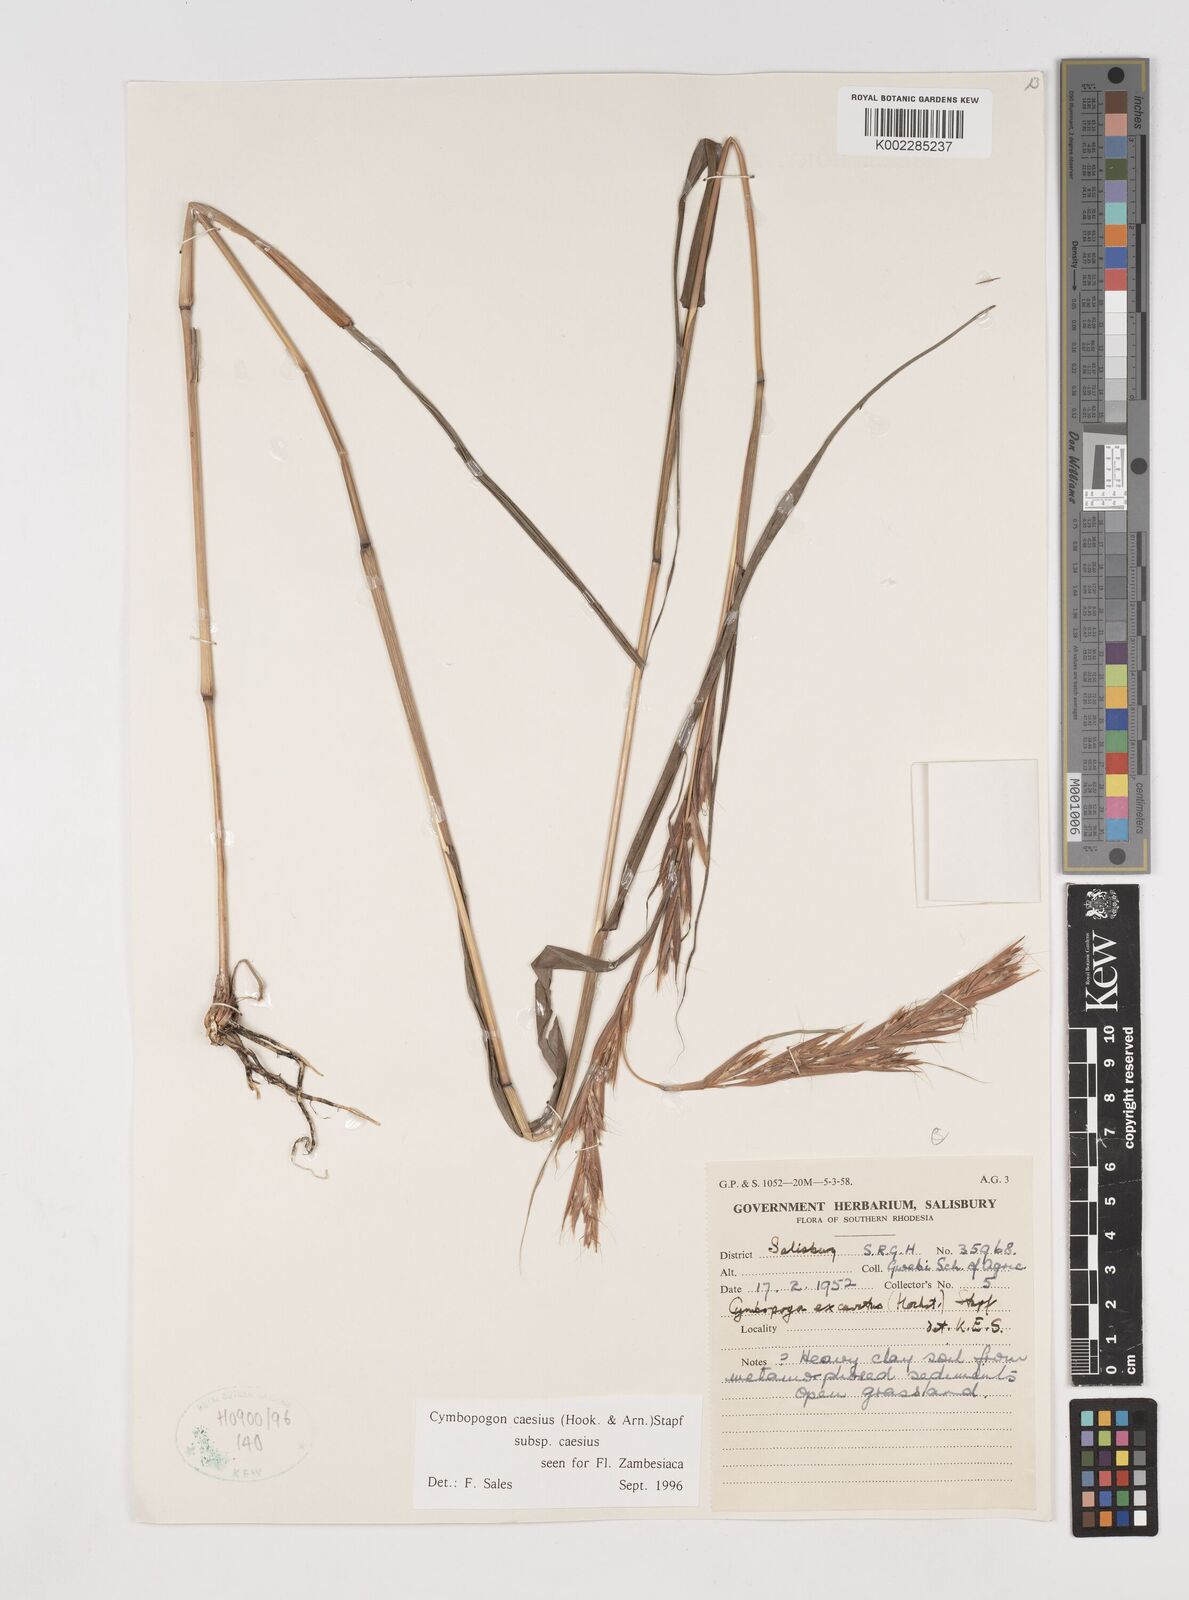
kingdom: Plantae
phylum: Tracheophyta
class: Liliopsida
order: Poales
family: Poaceae
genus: Cymbopogon
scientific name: Cymbopogon caesius
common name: Kachi grass
